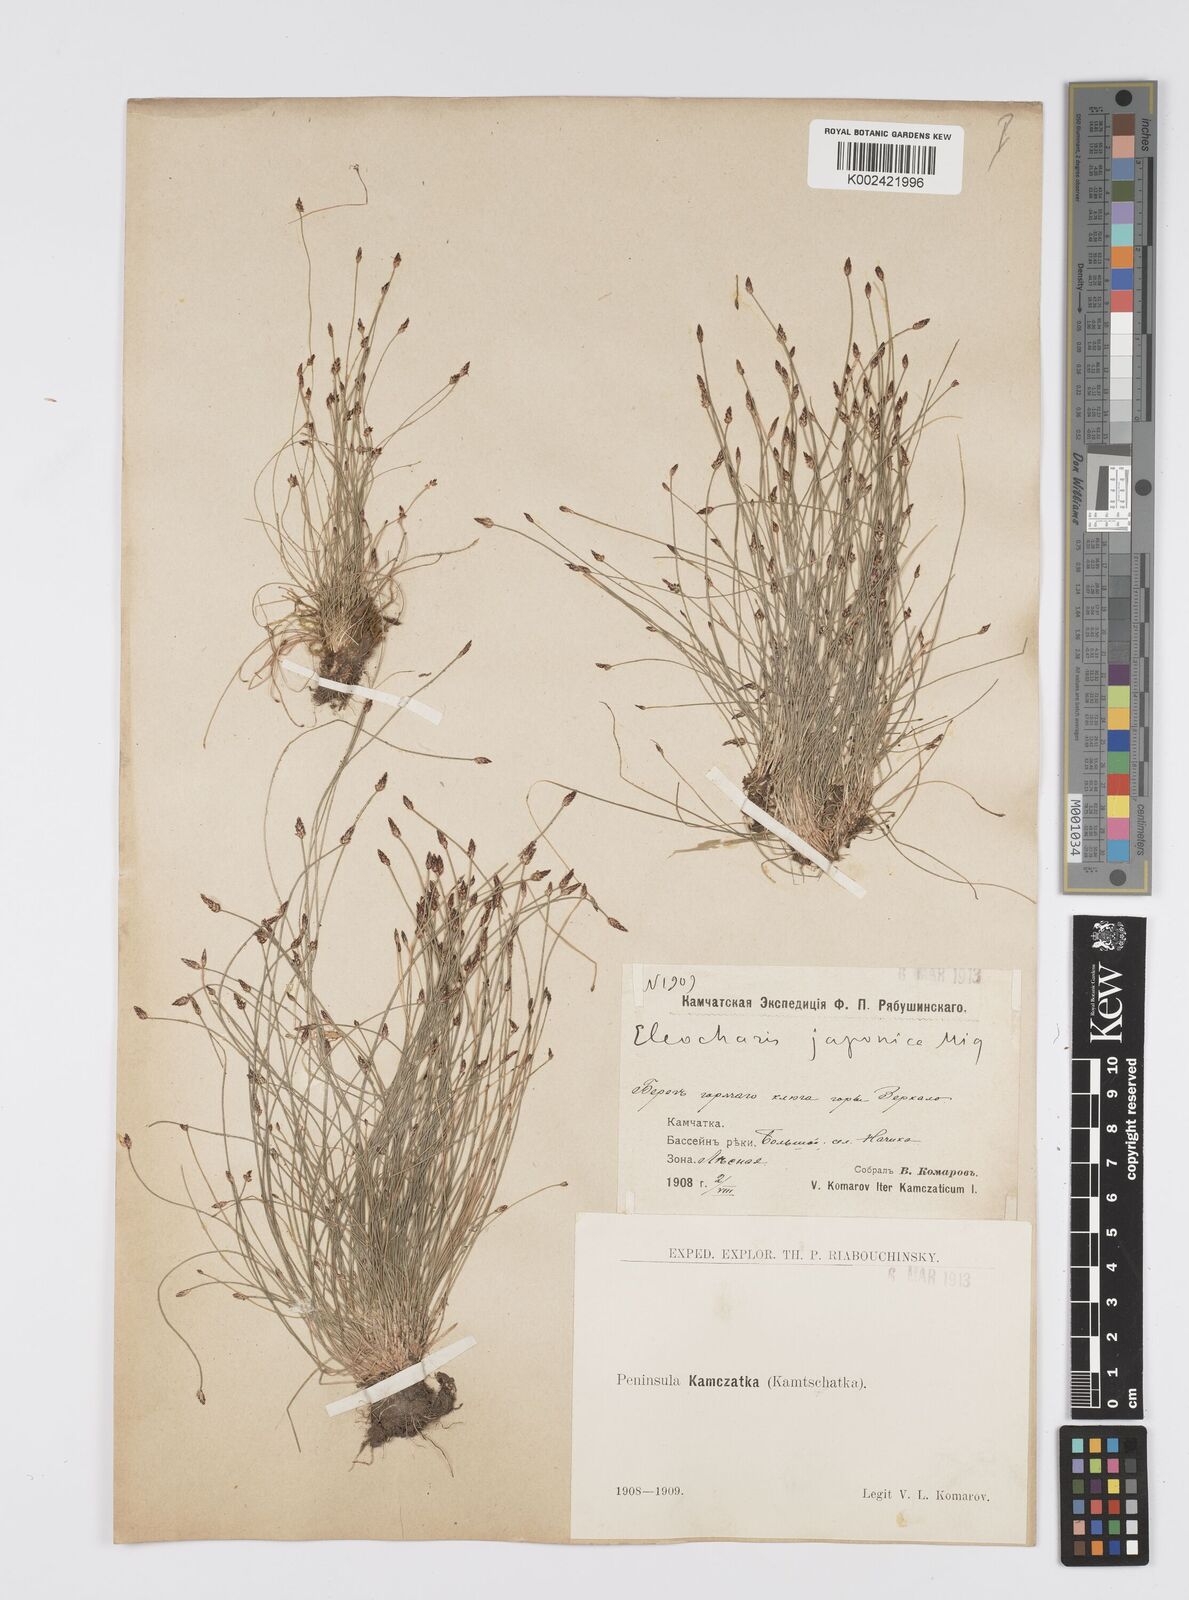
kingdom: Plantae
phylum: Tracheophyta
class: Liliopsida
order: Poales
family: Cyperaceae
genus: Eleocharis
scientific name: Eleocharis pellucida
